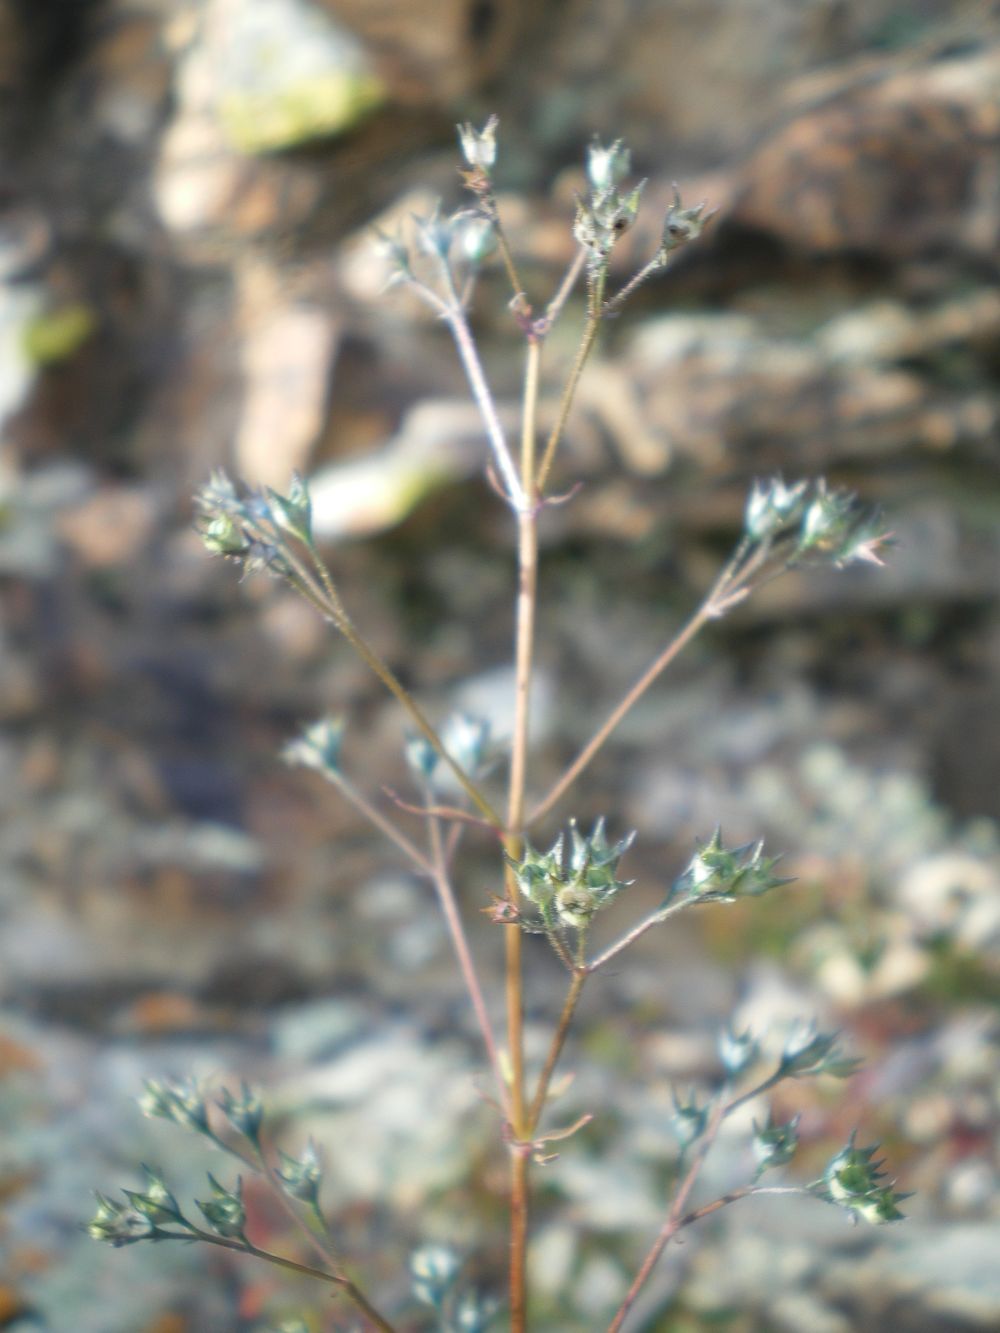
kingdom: Plantae
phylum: Tracheophyta
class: Magnoliopsida
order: Lamiales
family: Lamiaceae
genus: Amethystea
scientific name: Amethystea caerulea
